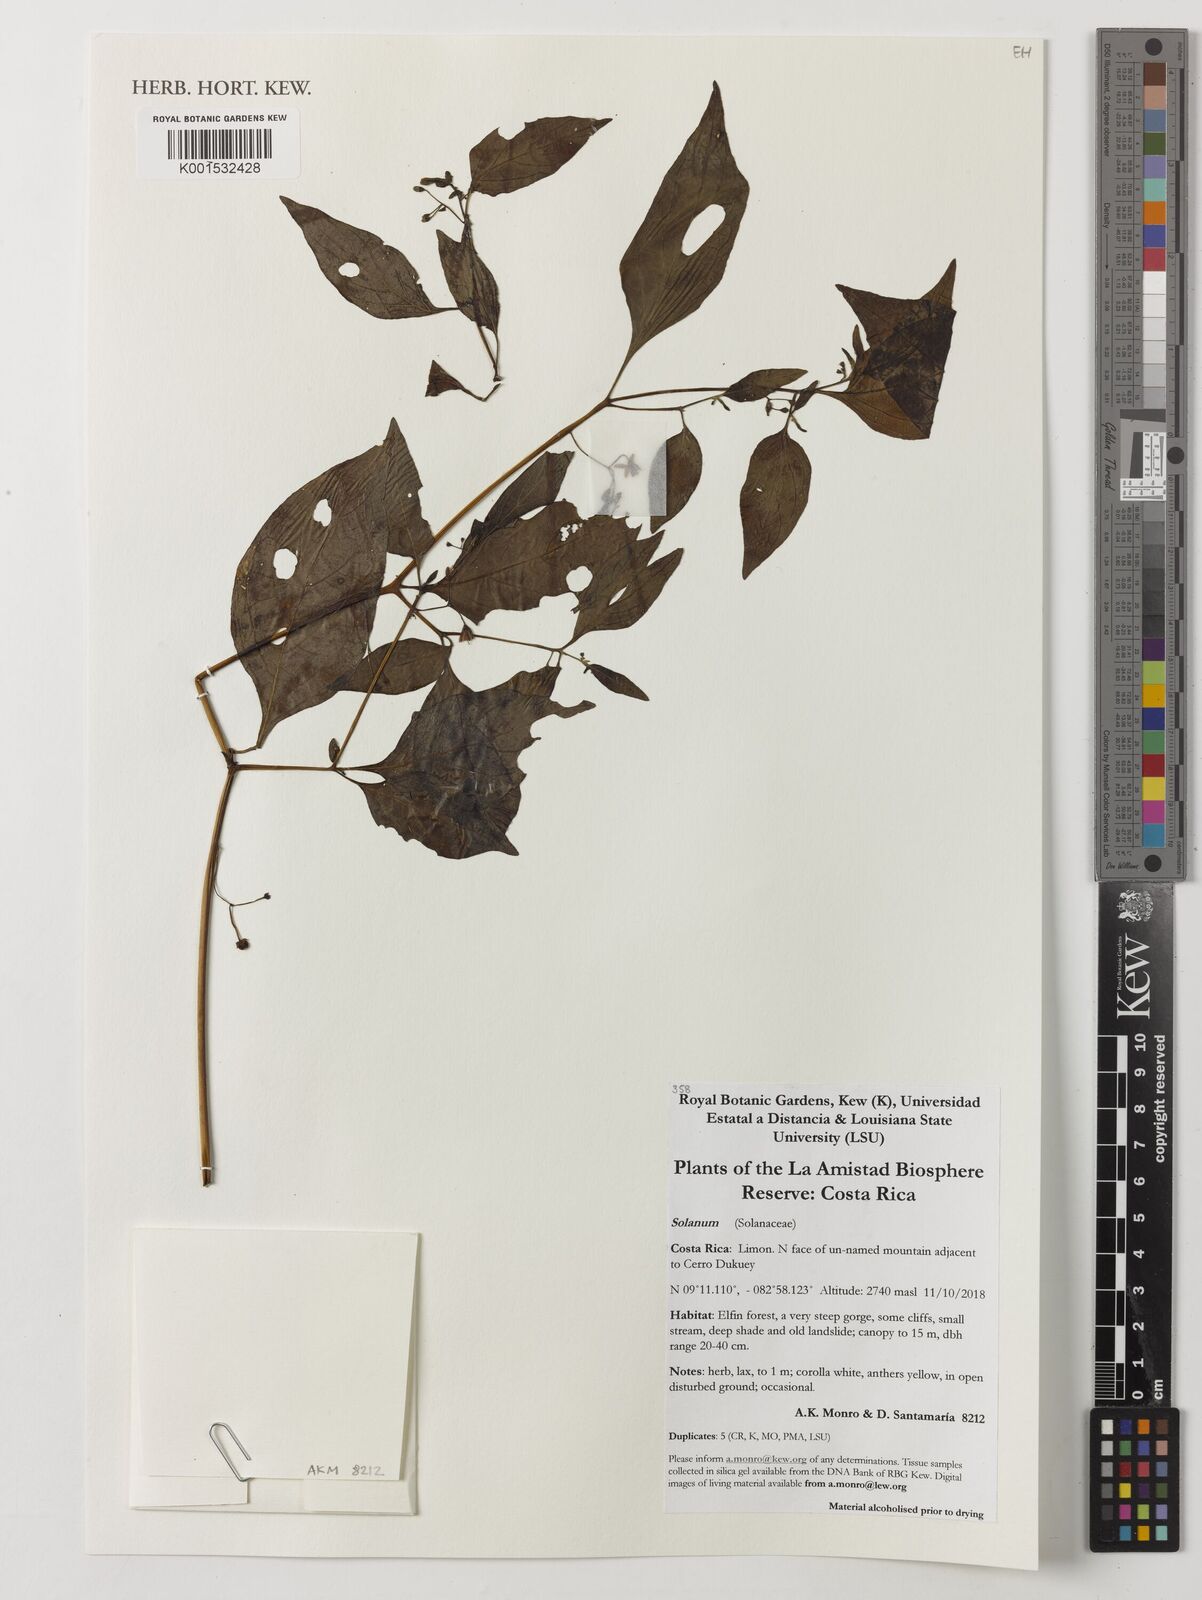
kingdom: Plantae
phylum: Tracheophyta
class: Magnoliopsida
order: Solanales
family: Solanaceae
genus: Solanum
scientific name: Solanum
